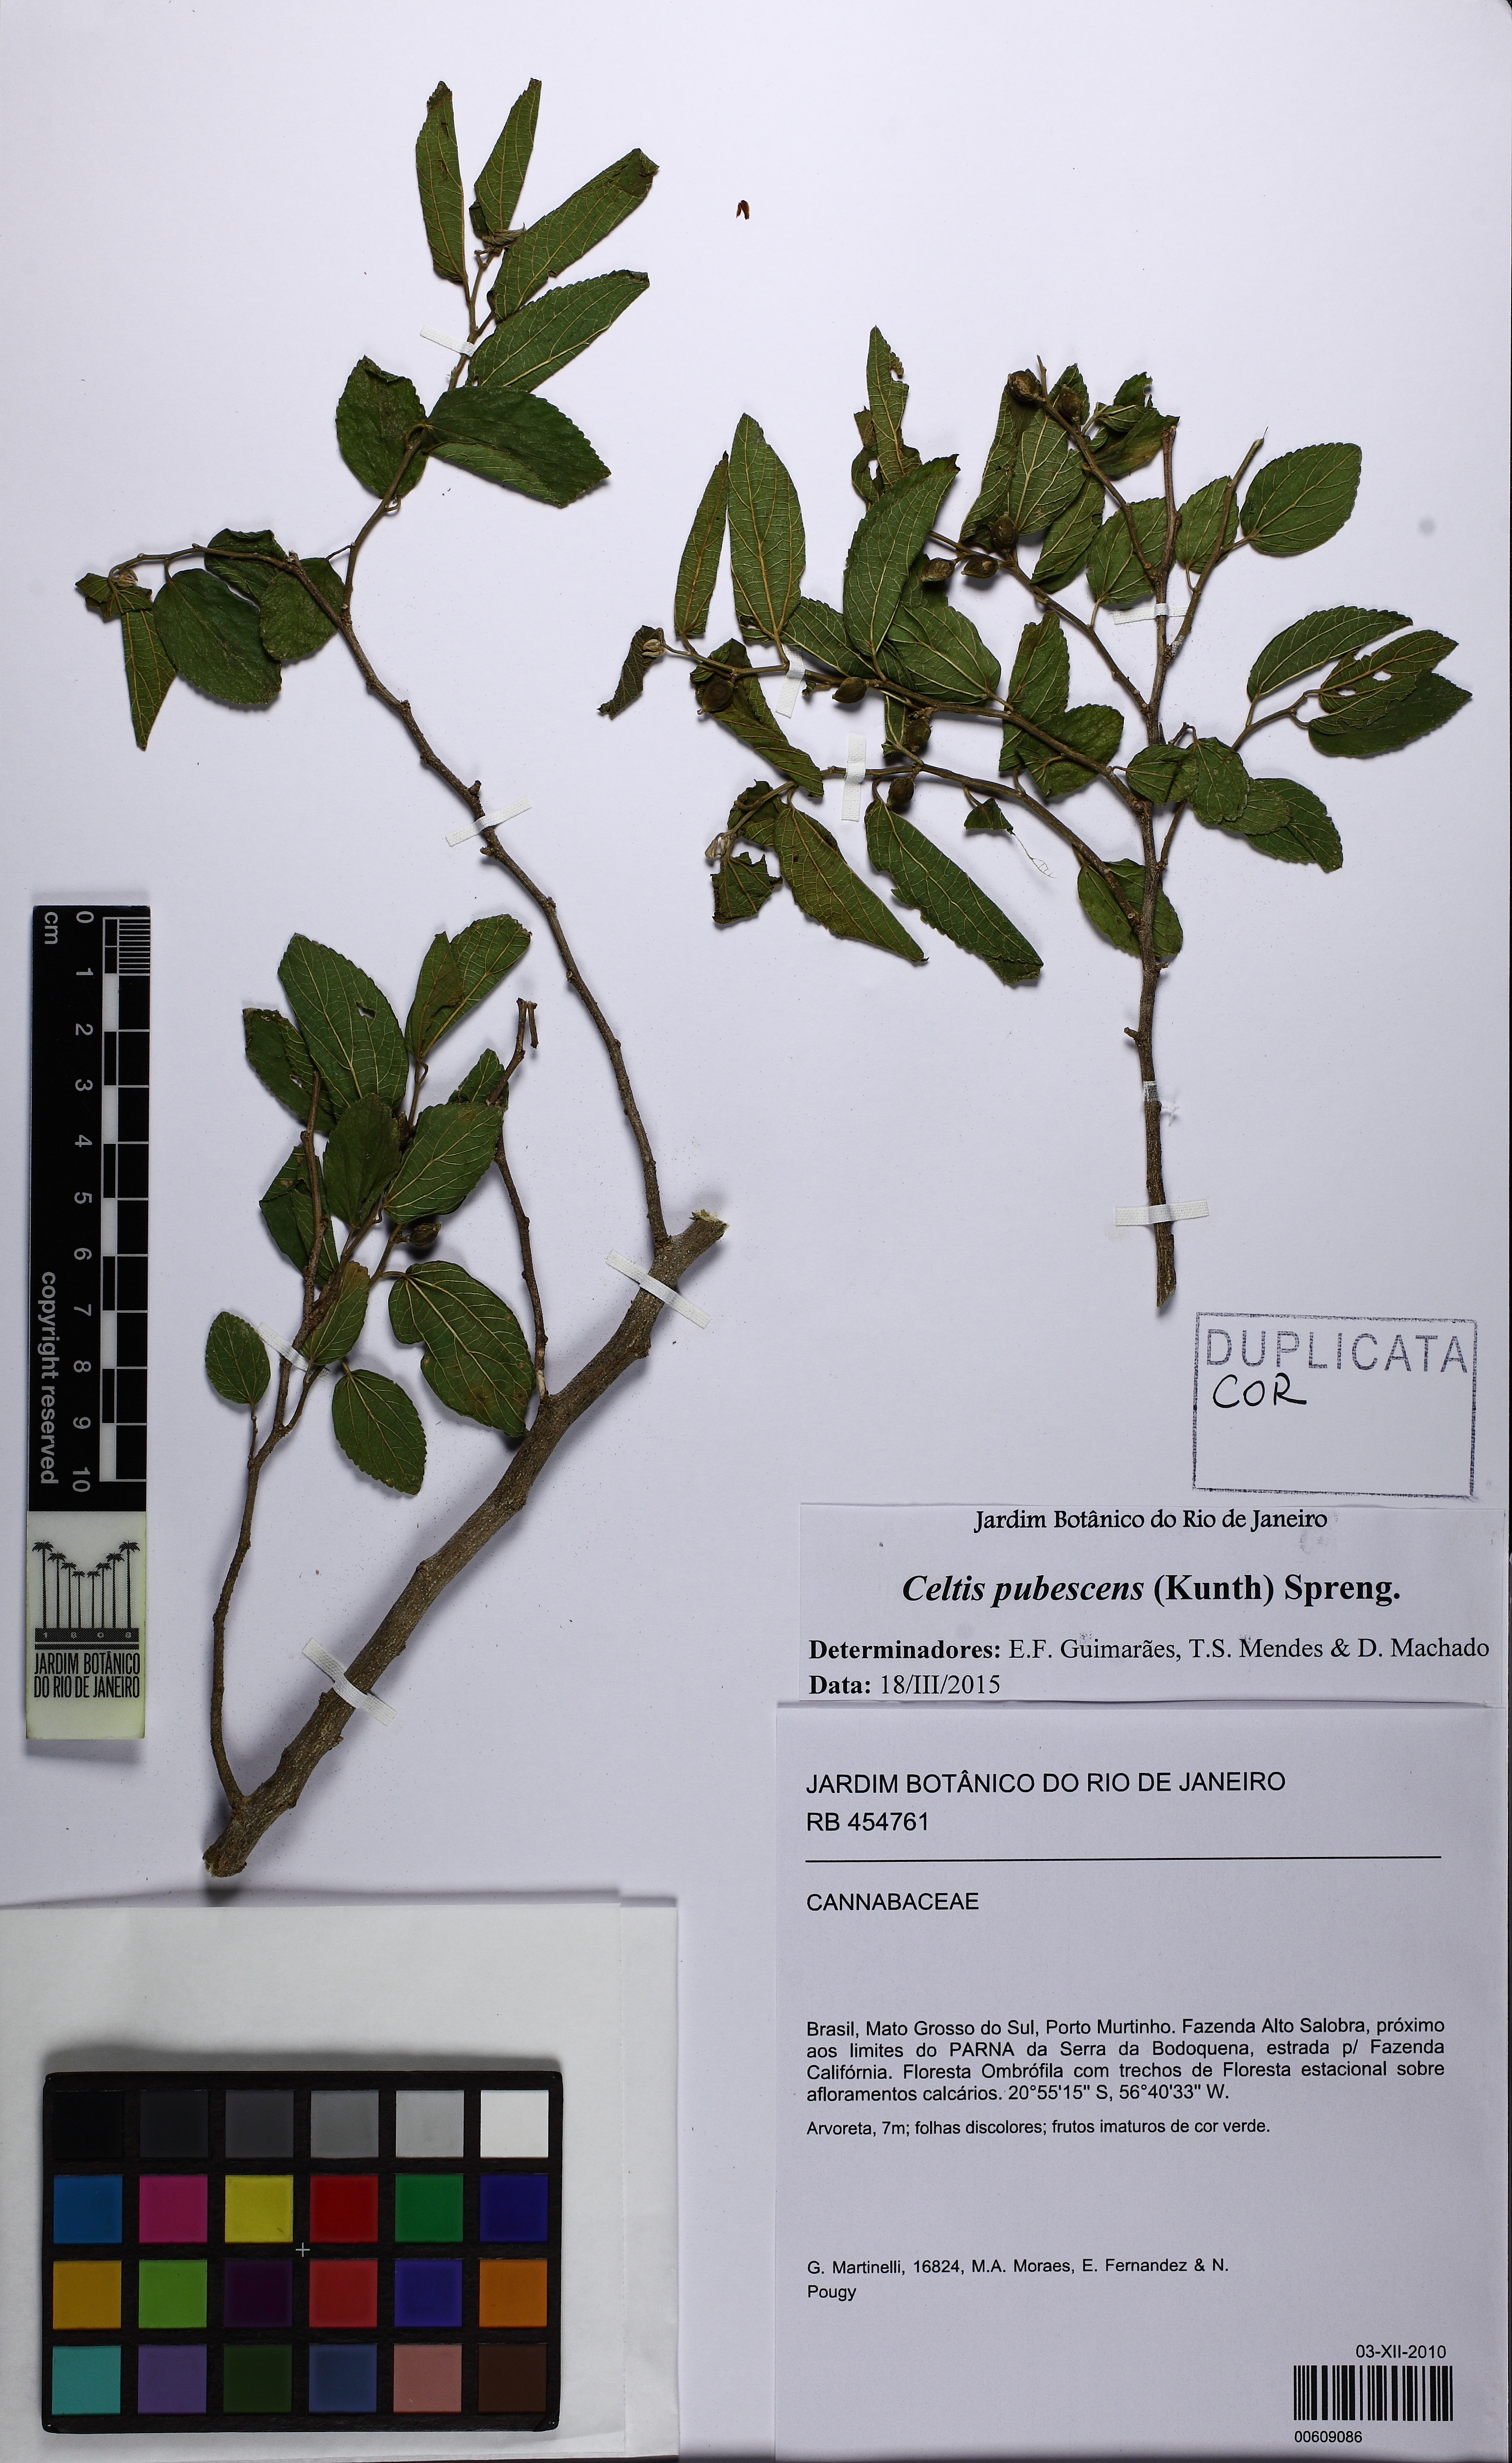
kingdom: Plantae
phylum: Tracheophyta
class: Magnoliopsida
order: Rosales
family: Cannabaceae
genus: Celtis
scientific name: Celtis iguanaea
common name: Iguana hackberry
